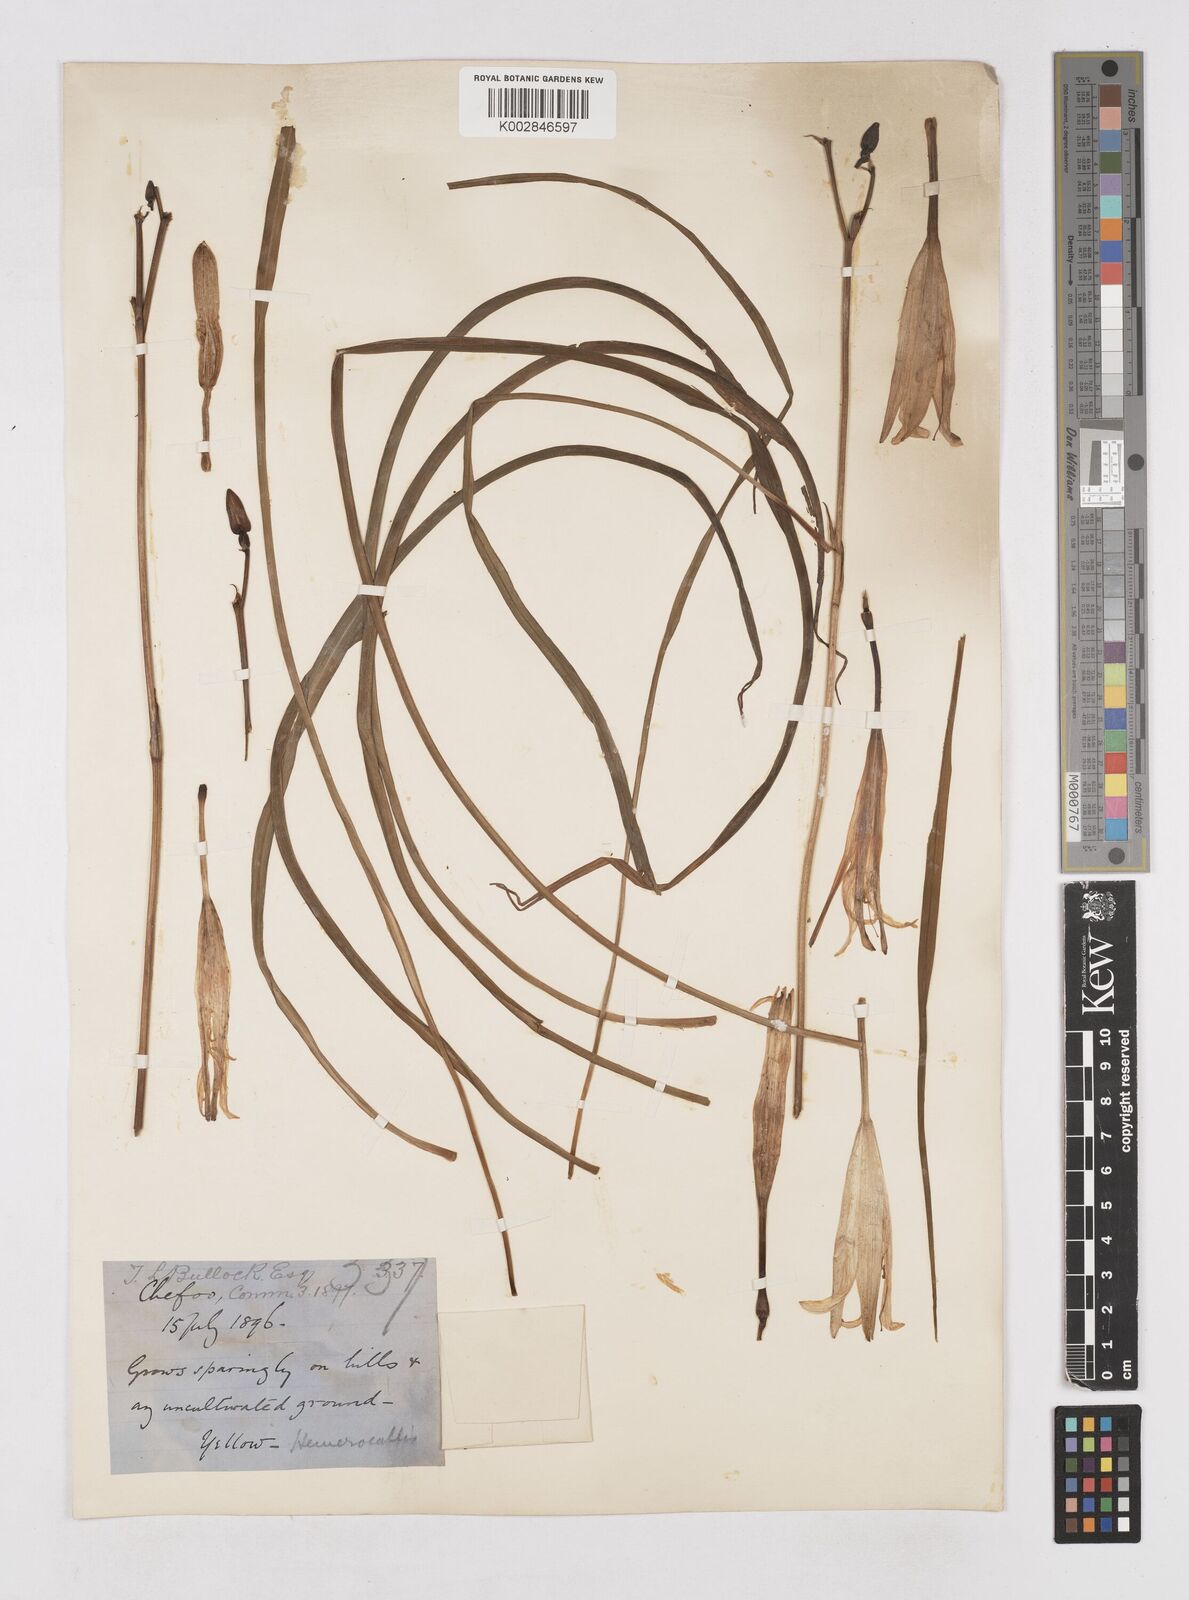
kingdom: Plantae
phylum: Tracheophyta
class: Liliopsida
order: Asparagales
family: Asphodelaceae
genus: Hemerocallis
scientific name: Hemerocallis minor
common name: Small daylily
